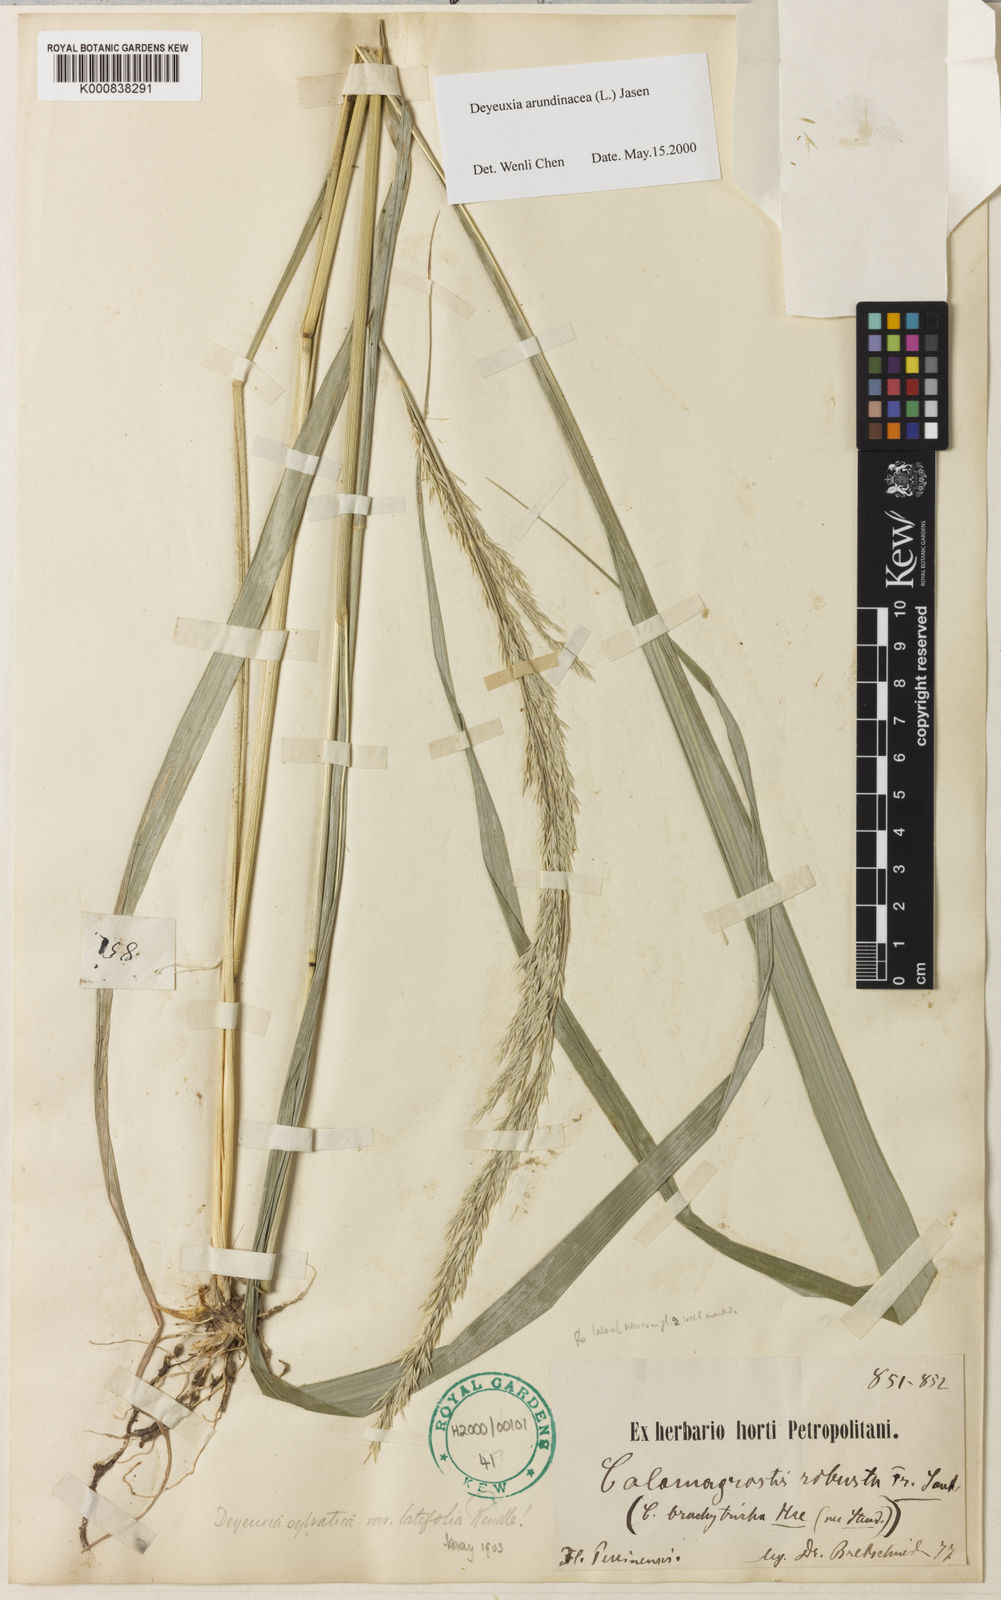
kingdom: Plantae
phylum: Tracheophyta
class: Liliopsida
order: Poales
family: Poaceae
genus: Calamagrostis
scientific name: Calamagrostis arundinacea
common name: Metskastik
